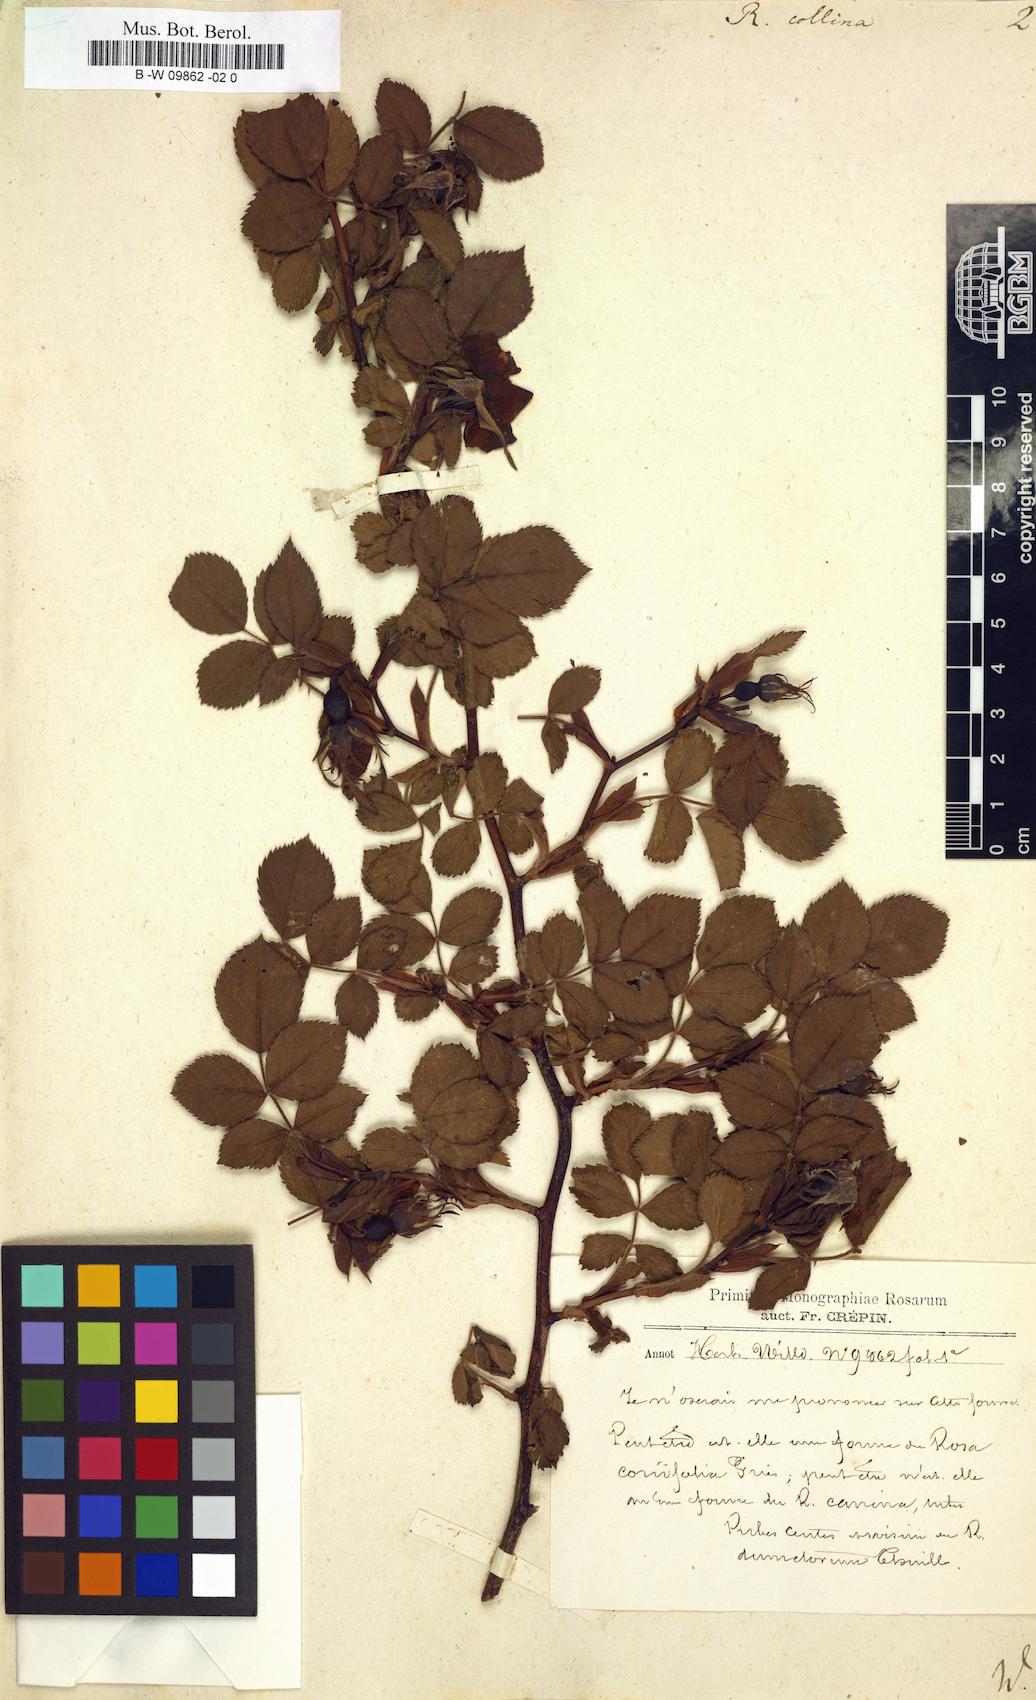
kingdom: Plantae
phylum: Tracheophyta
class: Magnoliopsida
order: Rosales
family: Rosaceae
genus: Rosa
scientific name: Rosa
